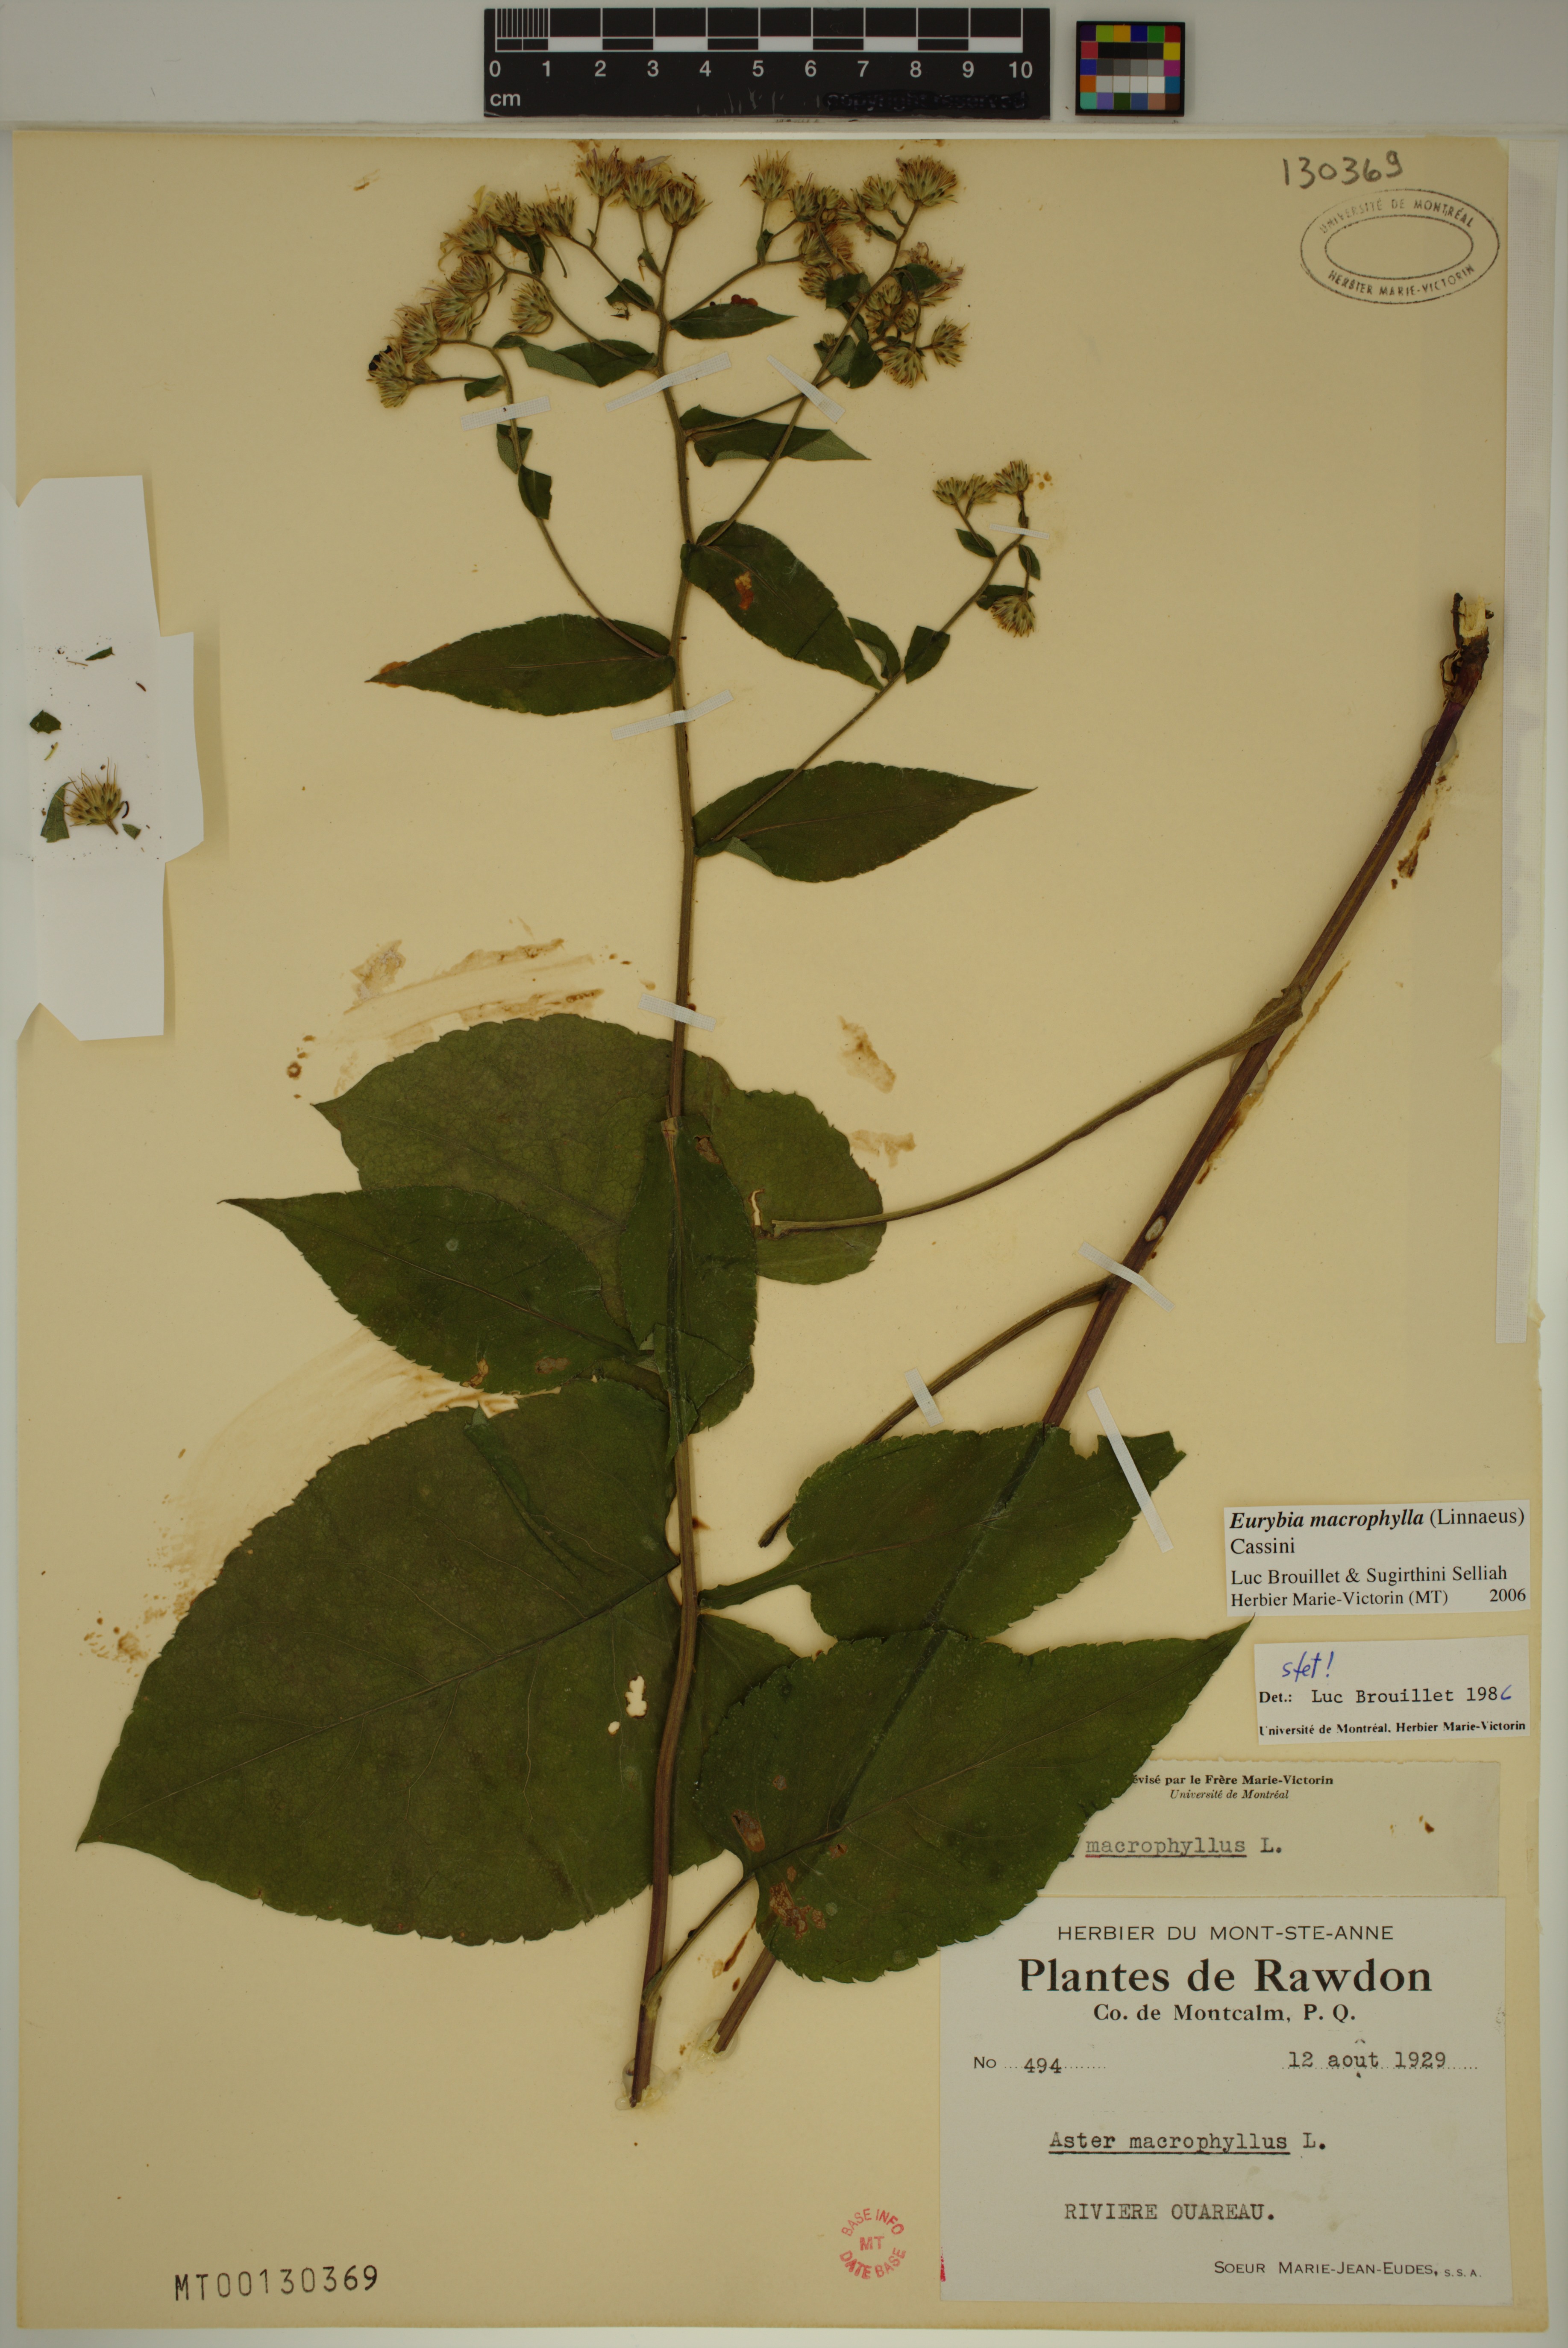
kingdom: Plantae
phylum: Tracheophyta
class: Magnoliopsida
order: Asterales
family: Asteraceae
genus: Eurybia
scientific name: Eurybia macrophylla
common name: Big-leaved aster
